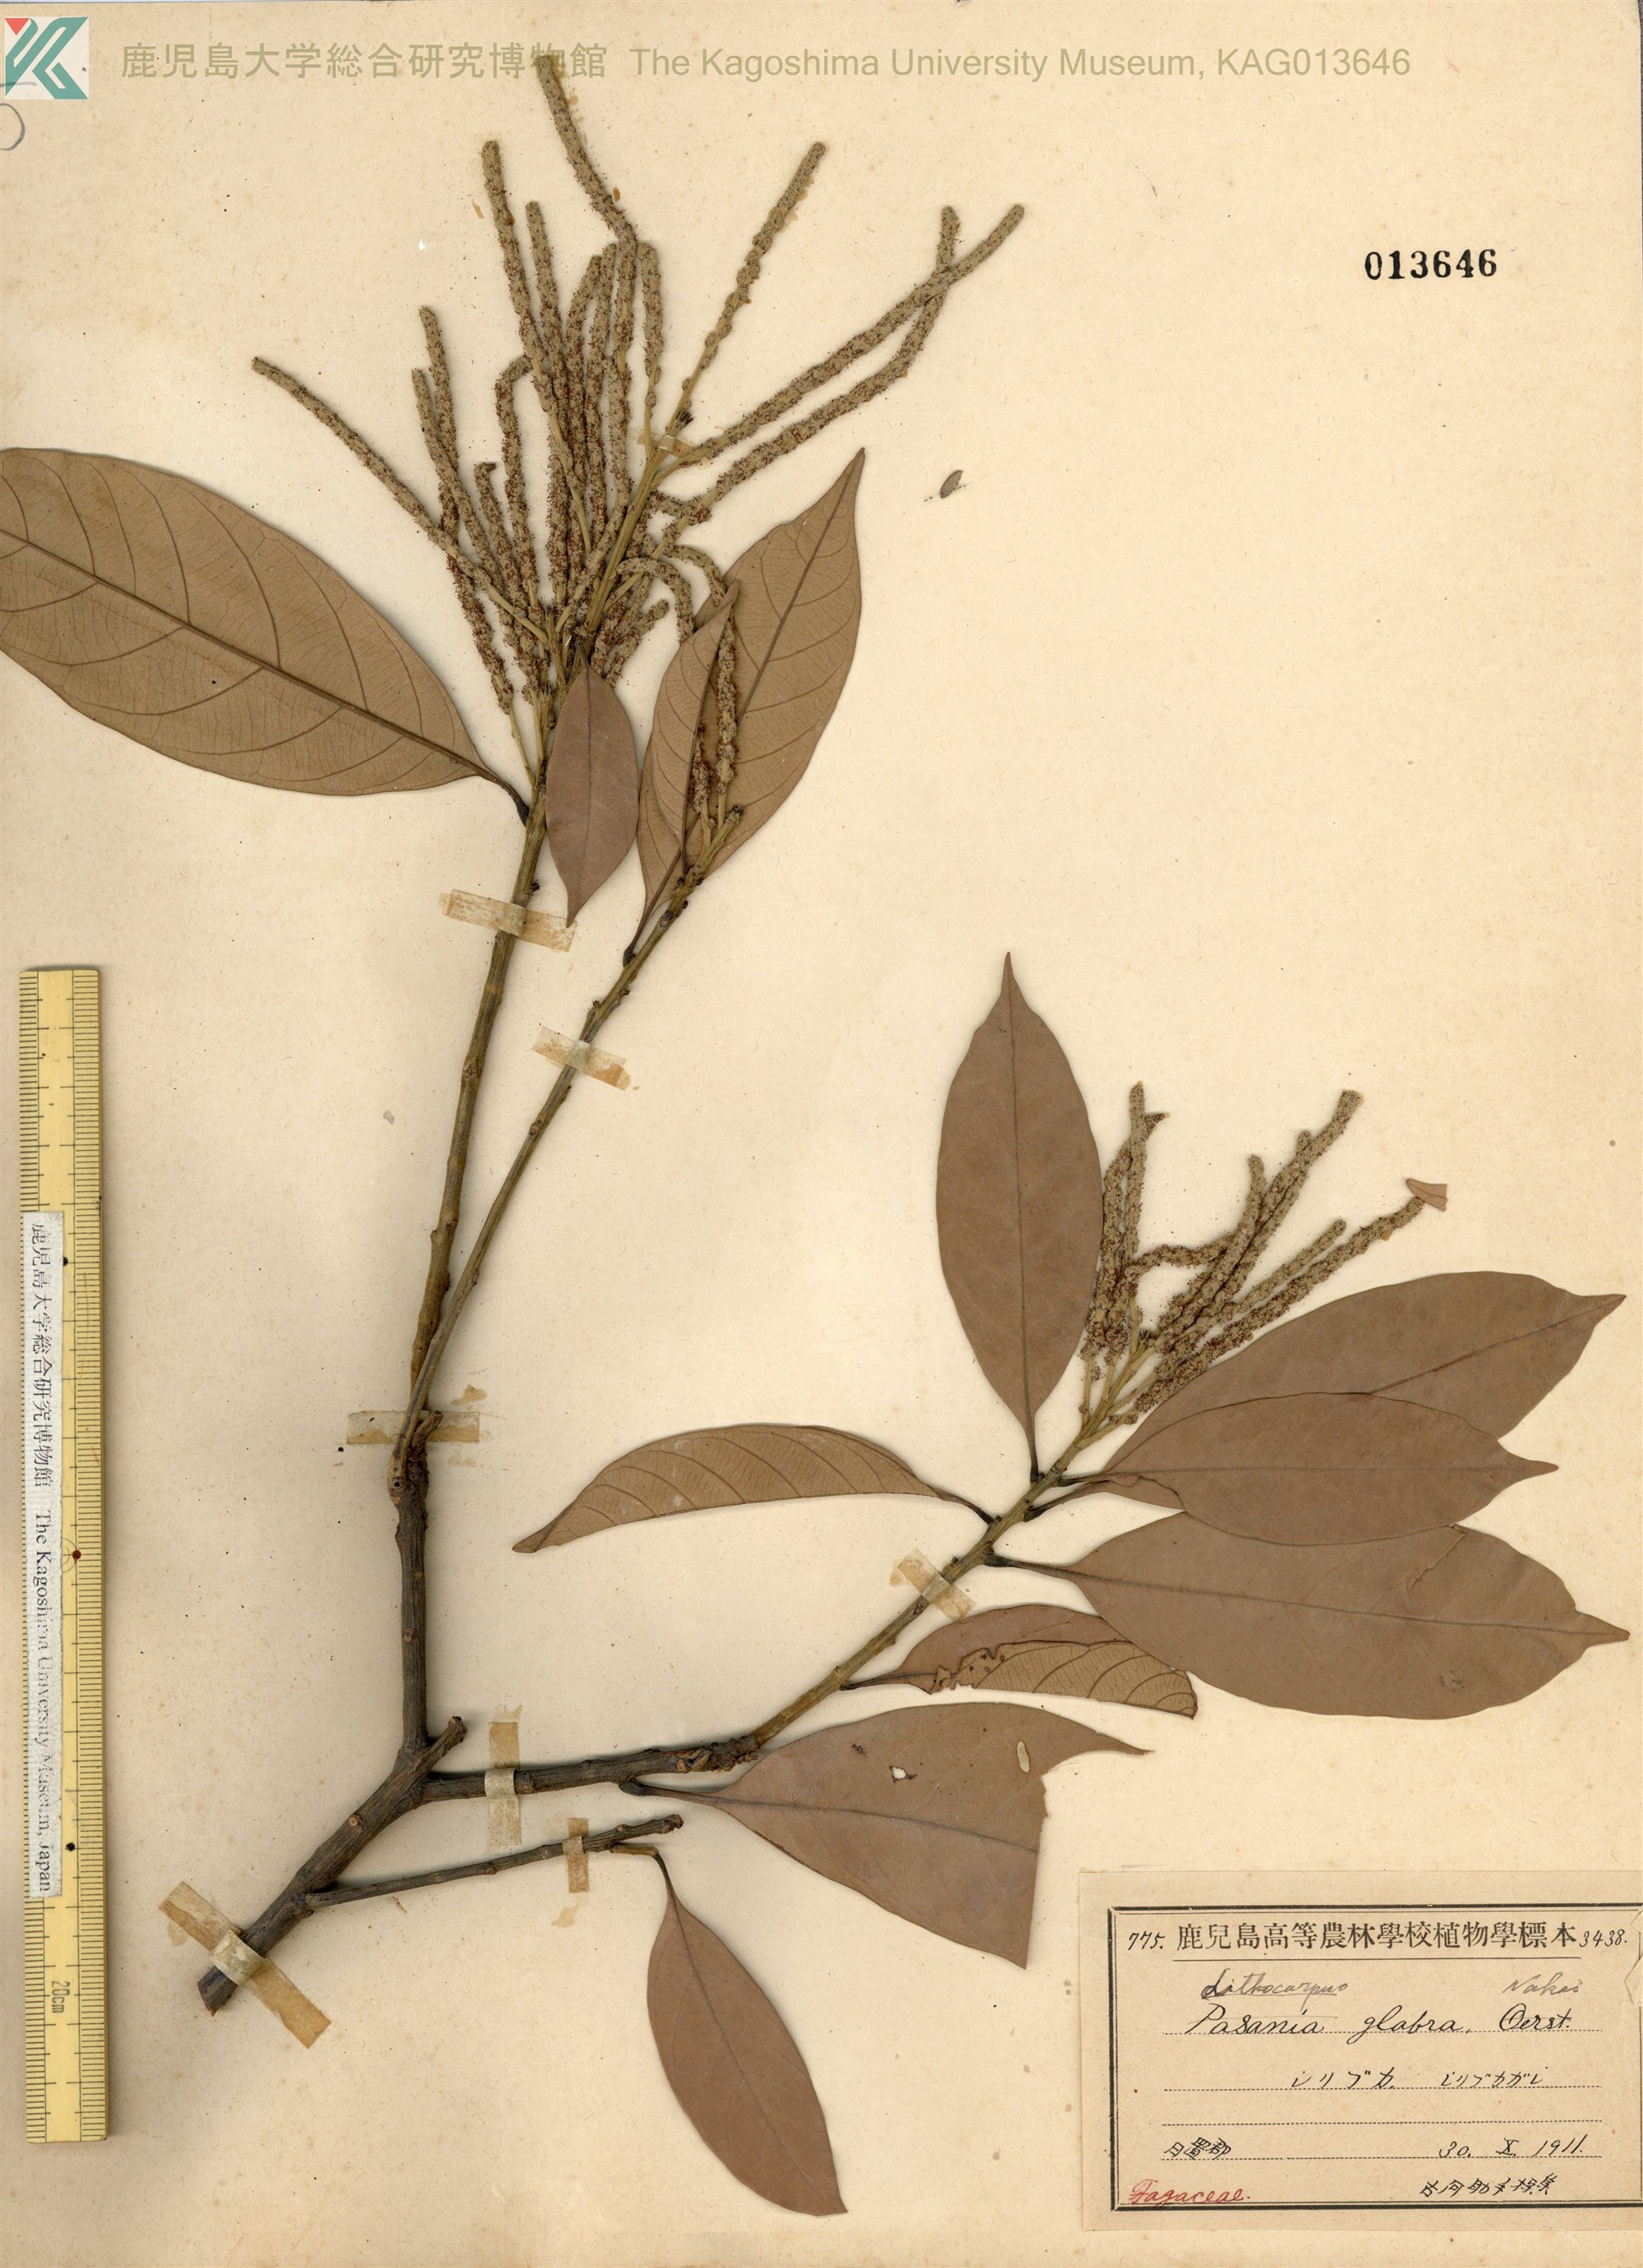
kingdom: Plantae
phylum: Tracheophyta
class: Magnoliopsida
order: Fagales
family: Fagaceae
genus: Lithocarpus
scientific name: Lithocarpus glaber
